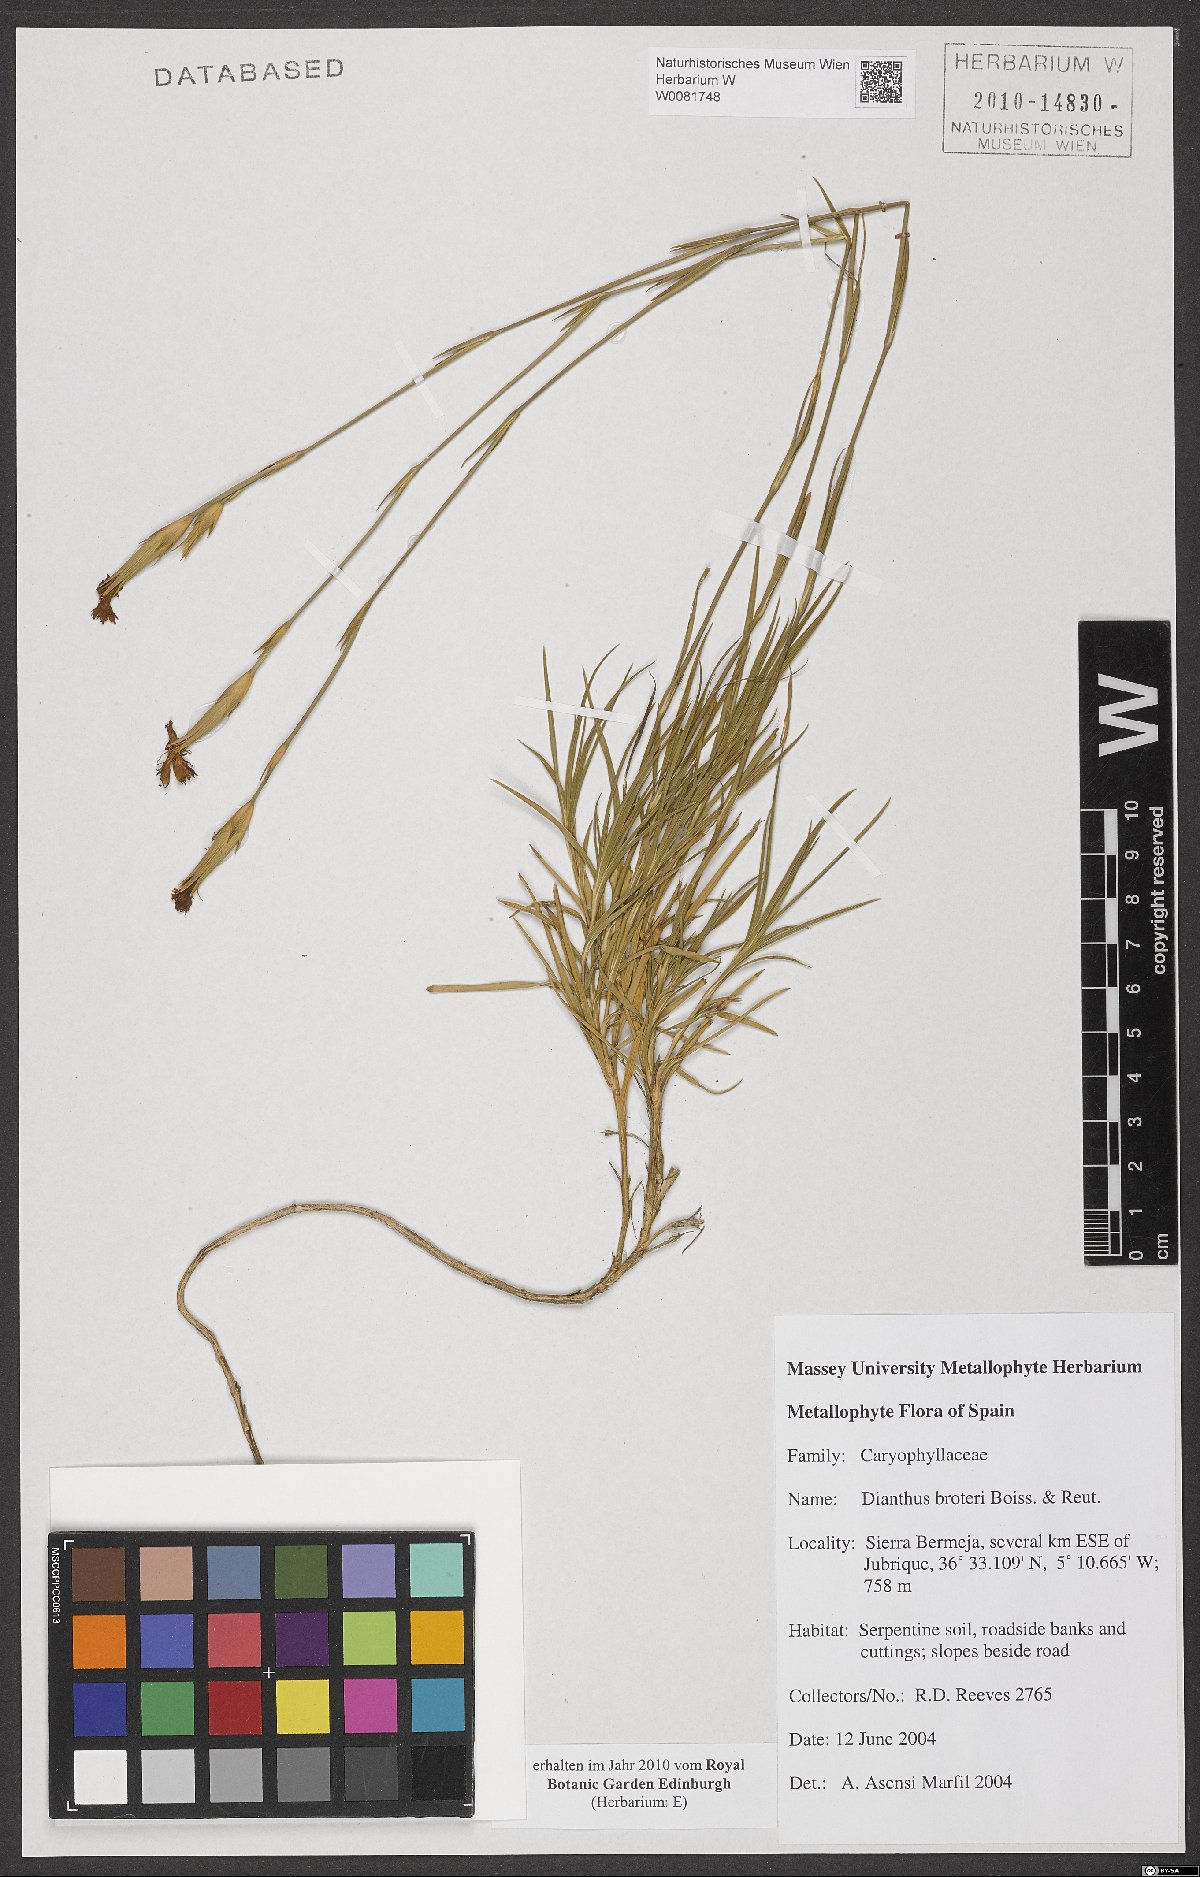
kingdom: Plantae
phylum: Tracheophyta
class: Magnoliopsida
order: Caryophyllales
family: Caryophyllaceae
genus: Dianthus
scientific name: Dianthus broteri
